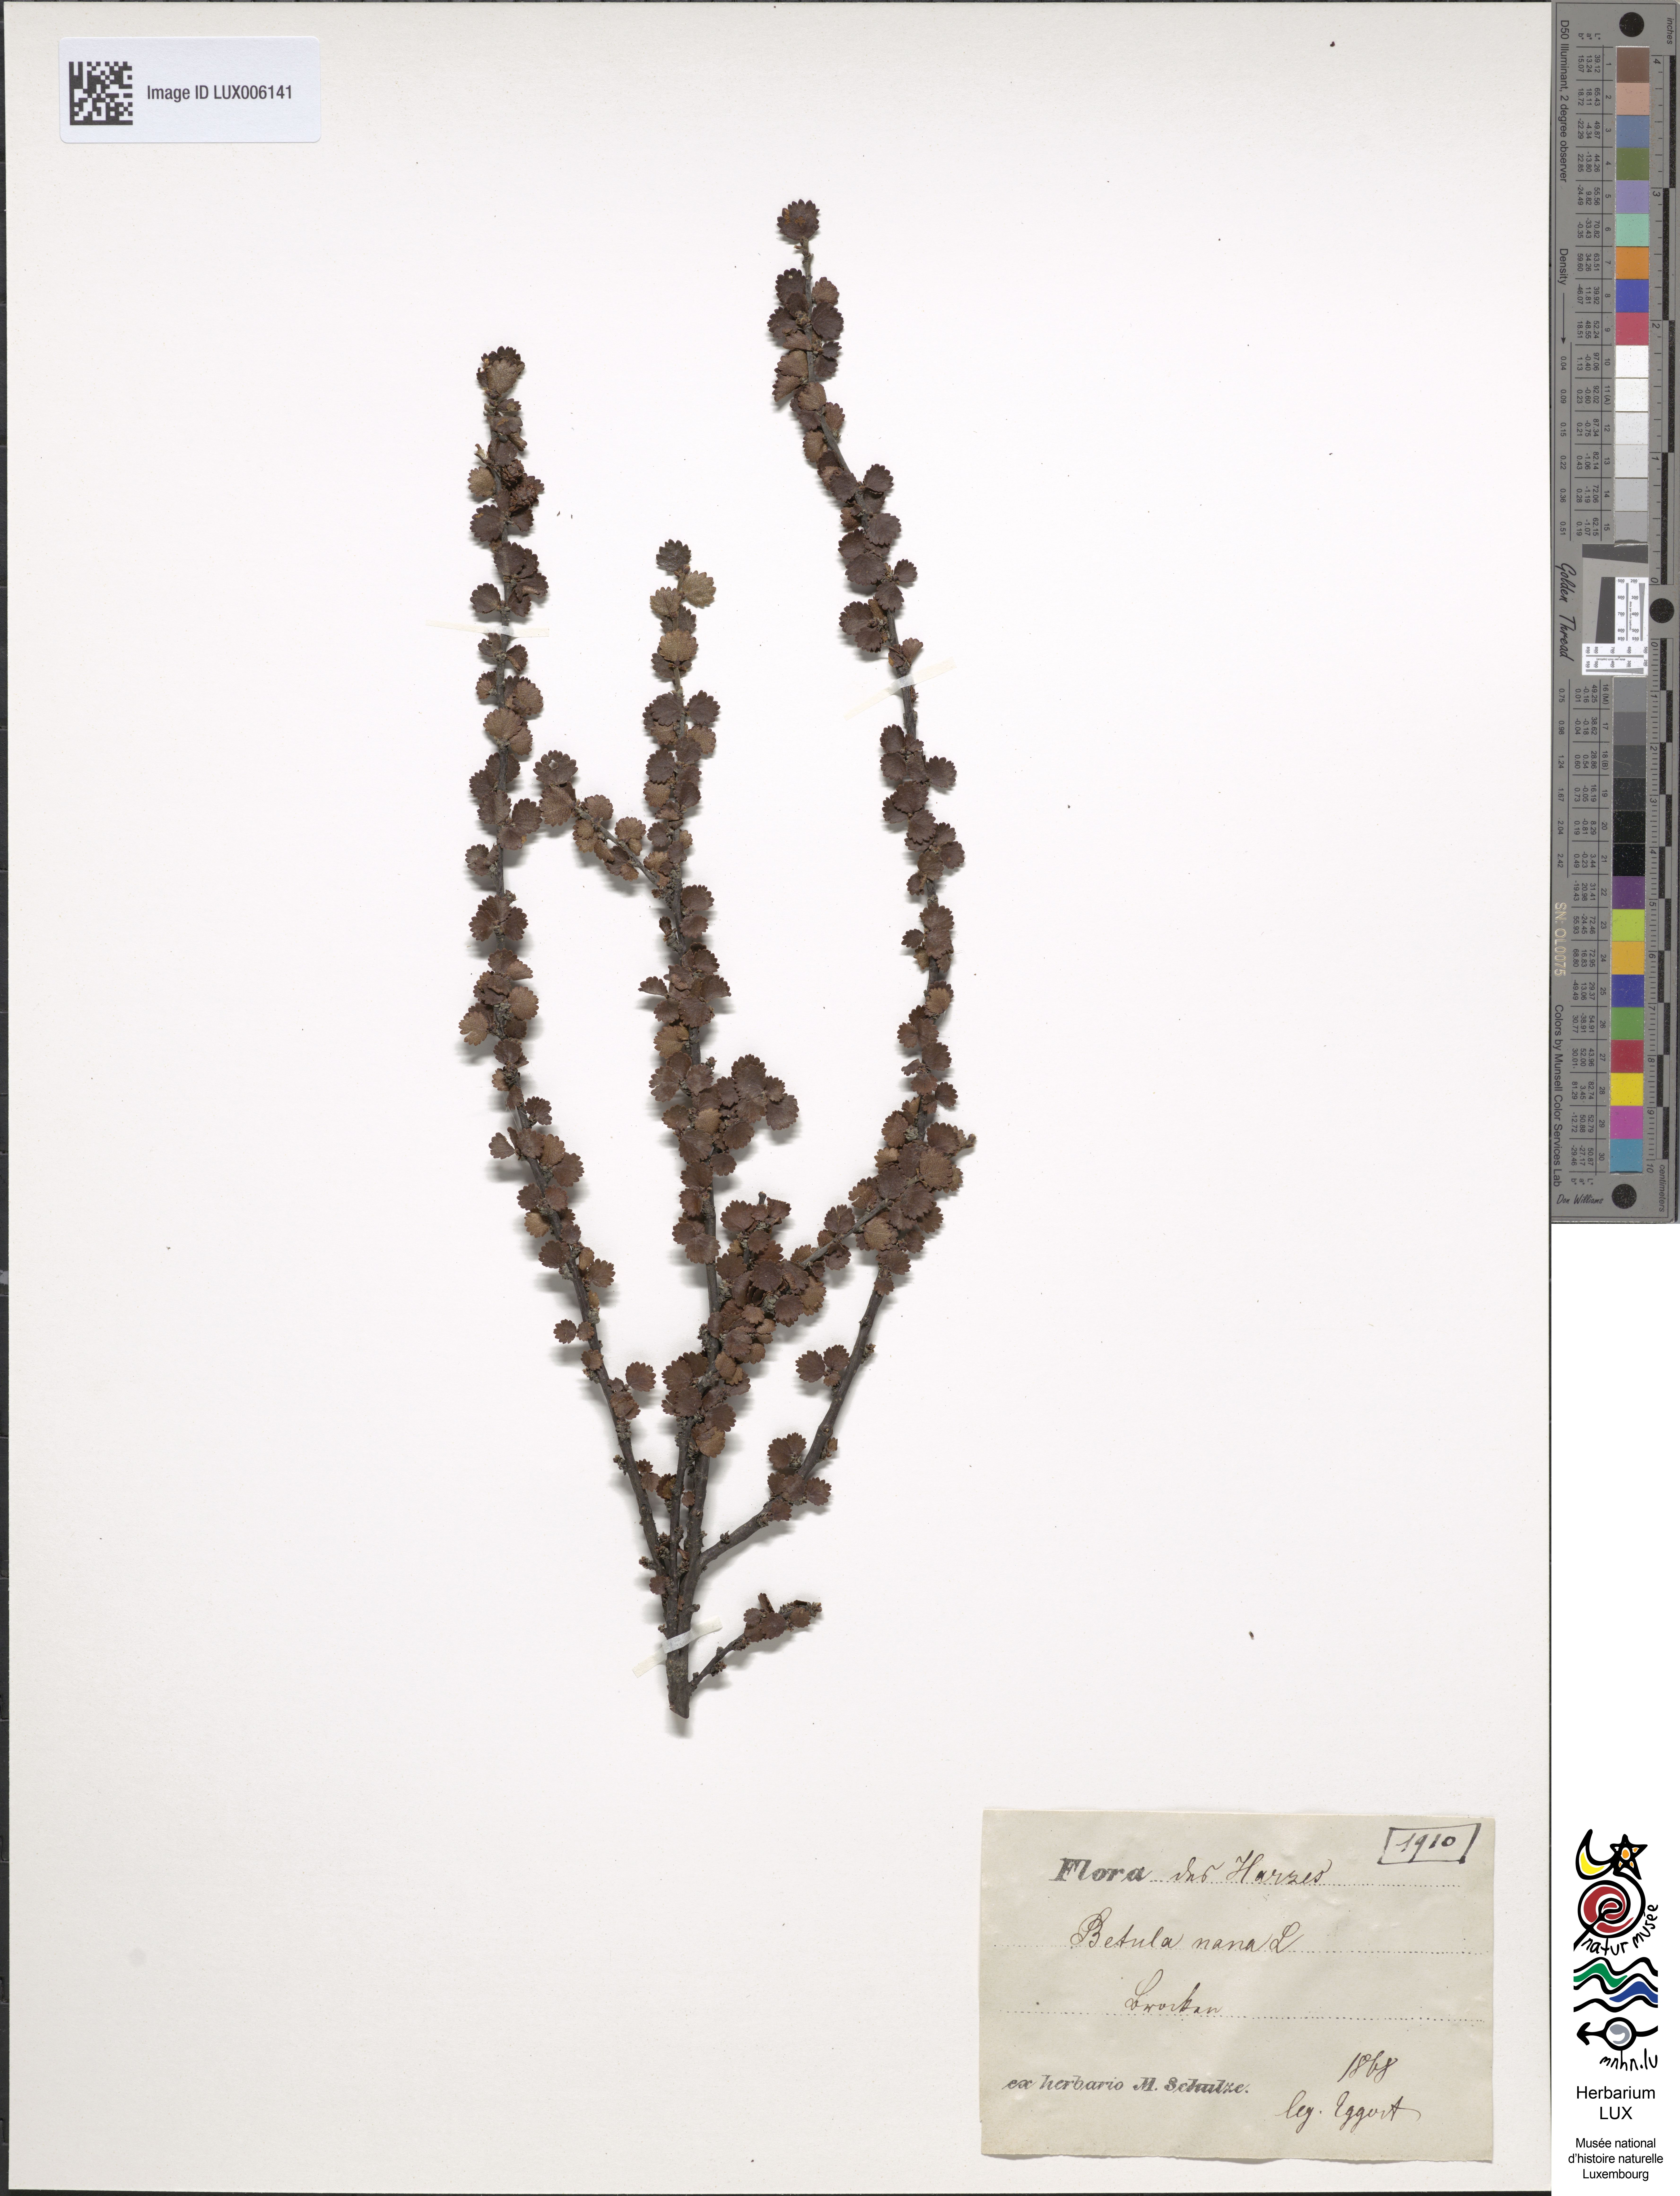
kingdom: Plantae
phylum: Tracheophyta
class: Magnoliopsida
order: Fagales
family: Betulaceae
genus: Betula
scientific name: Betula nana
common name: Arctic dwarf birch
